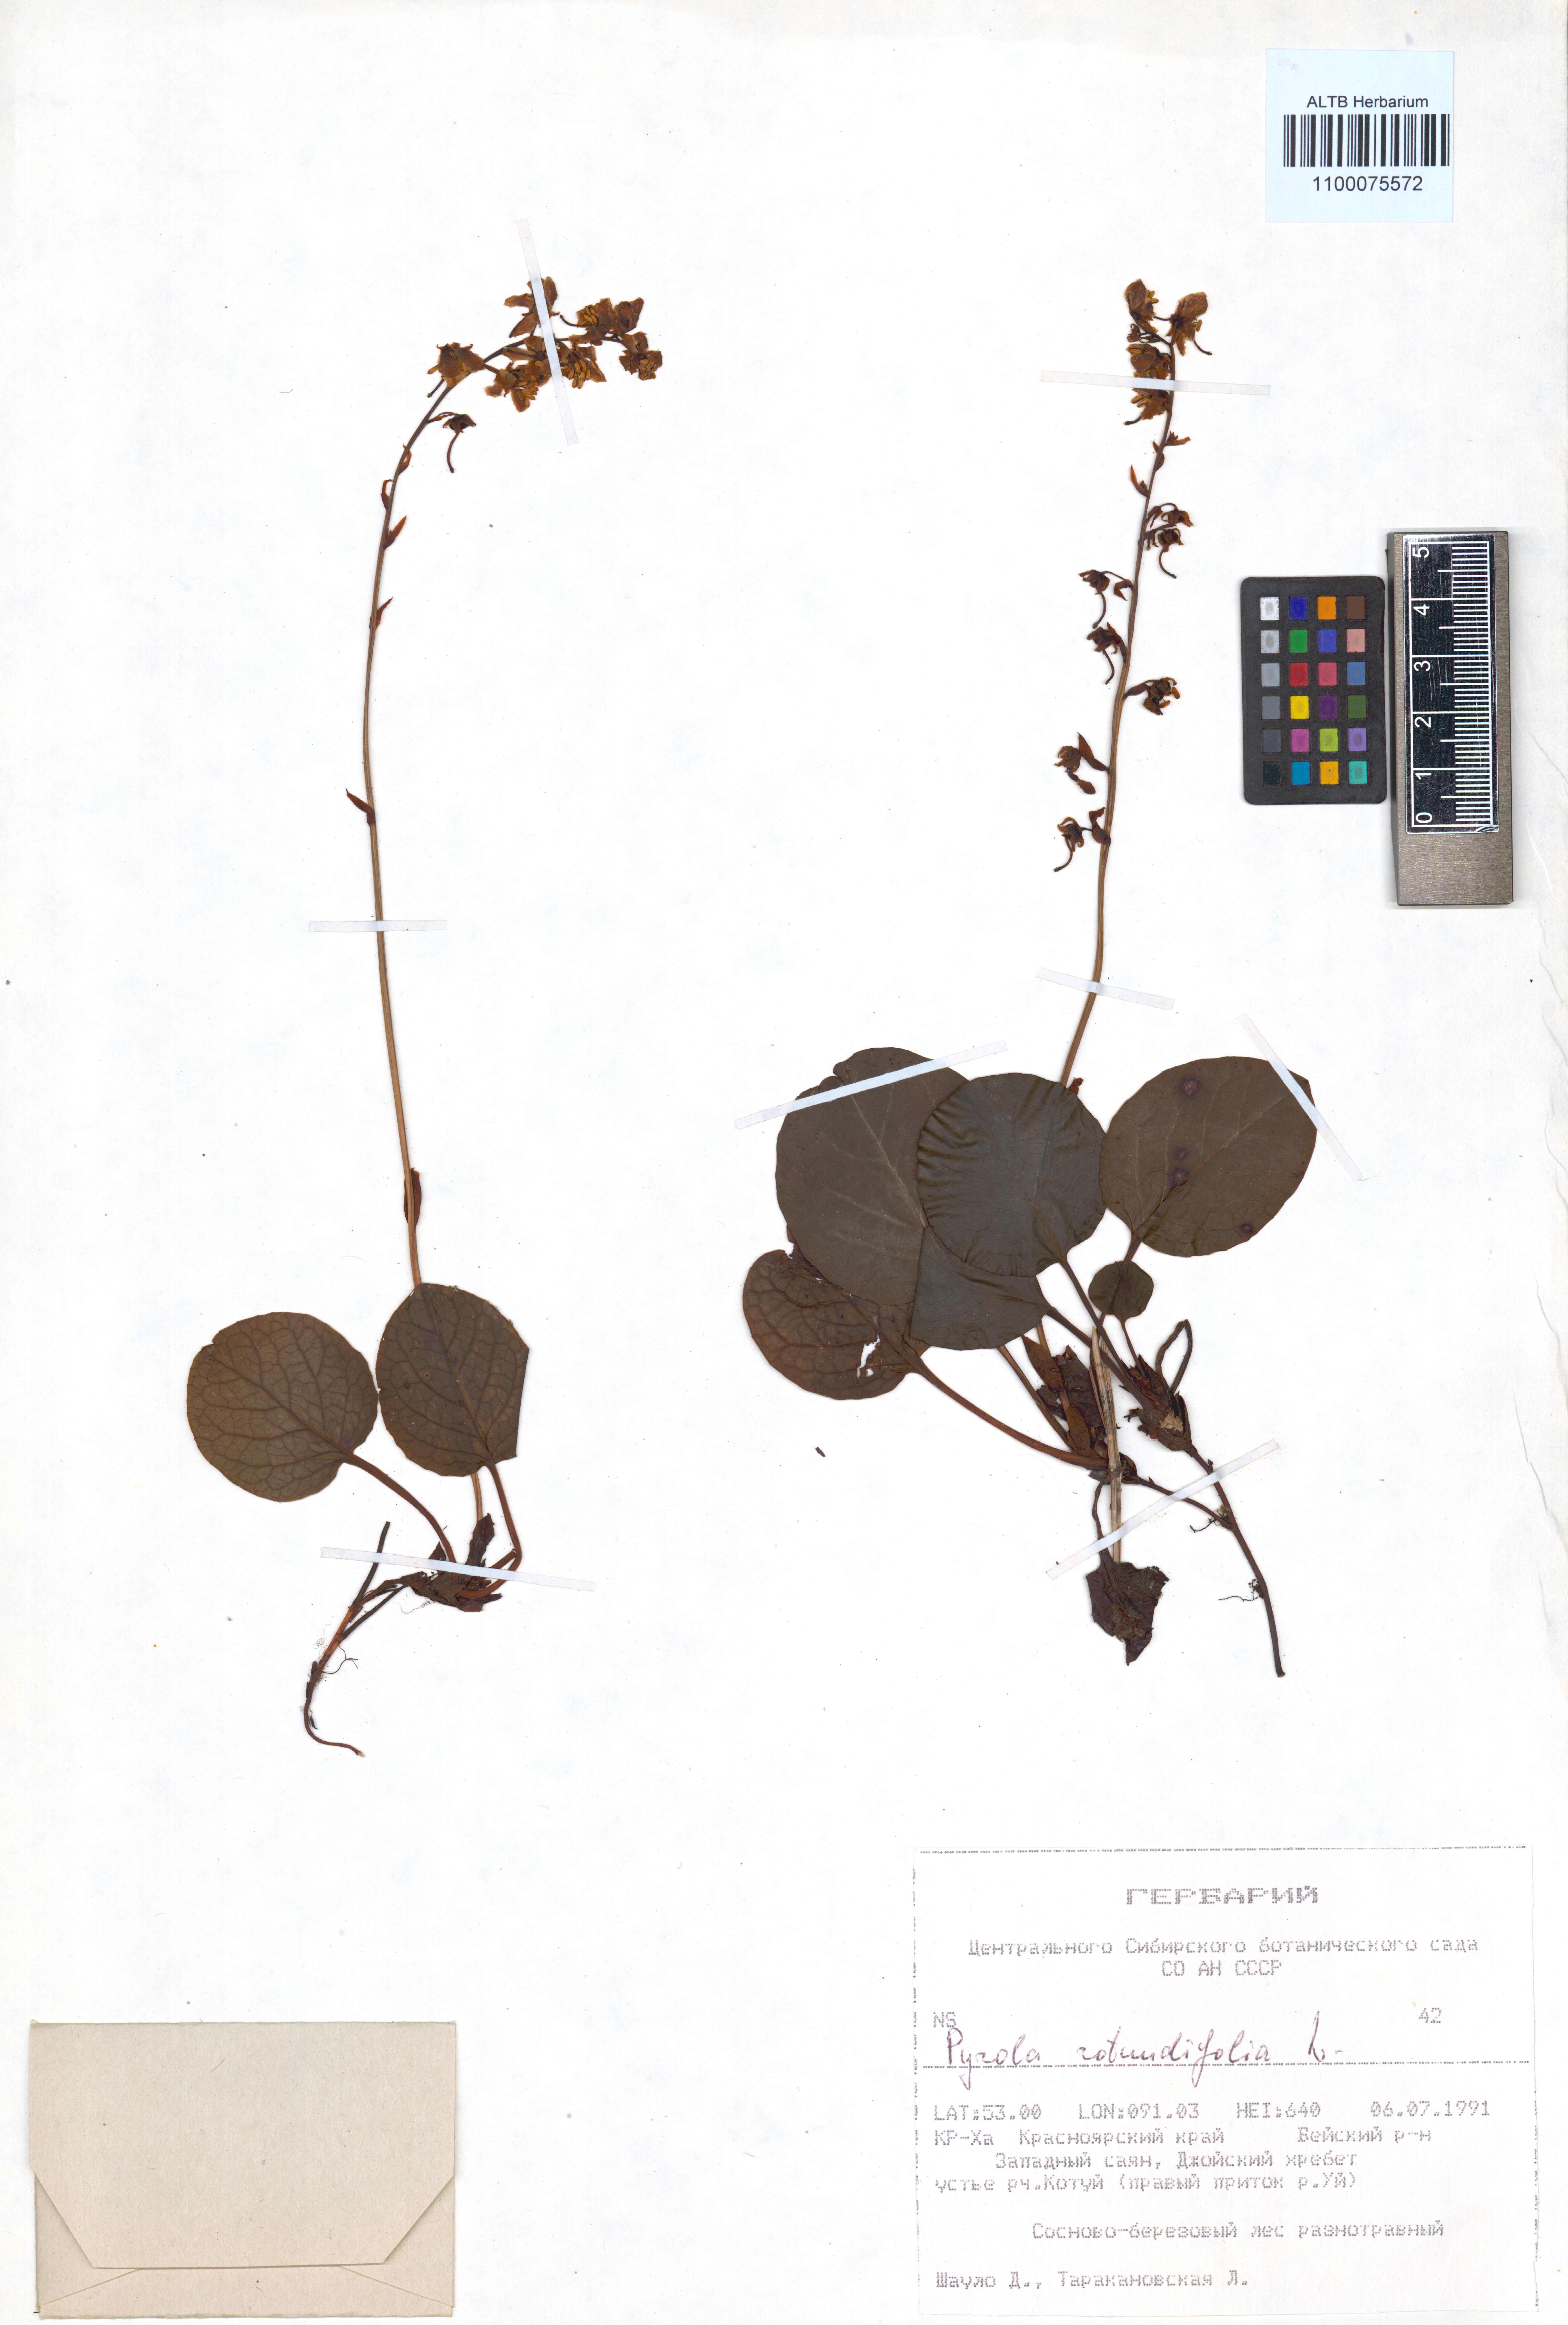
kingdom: Plantae
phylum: Tracheophyta
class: Magnoliopsida
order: Ericales
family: Ericaceae
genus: Pyrola
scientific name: Pyrola rotundifolia
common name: Round-leaved wintergreen
